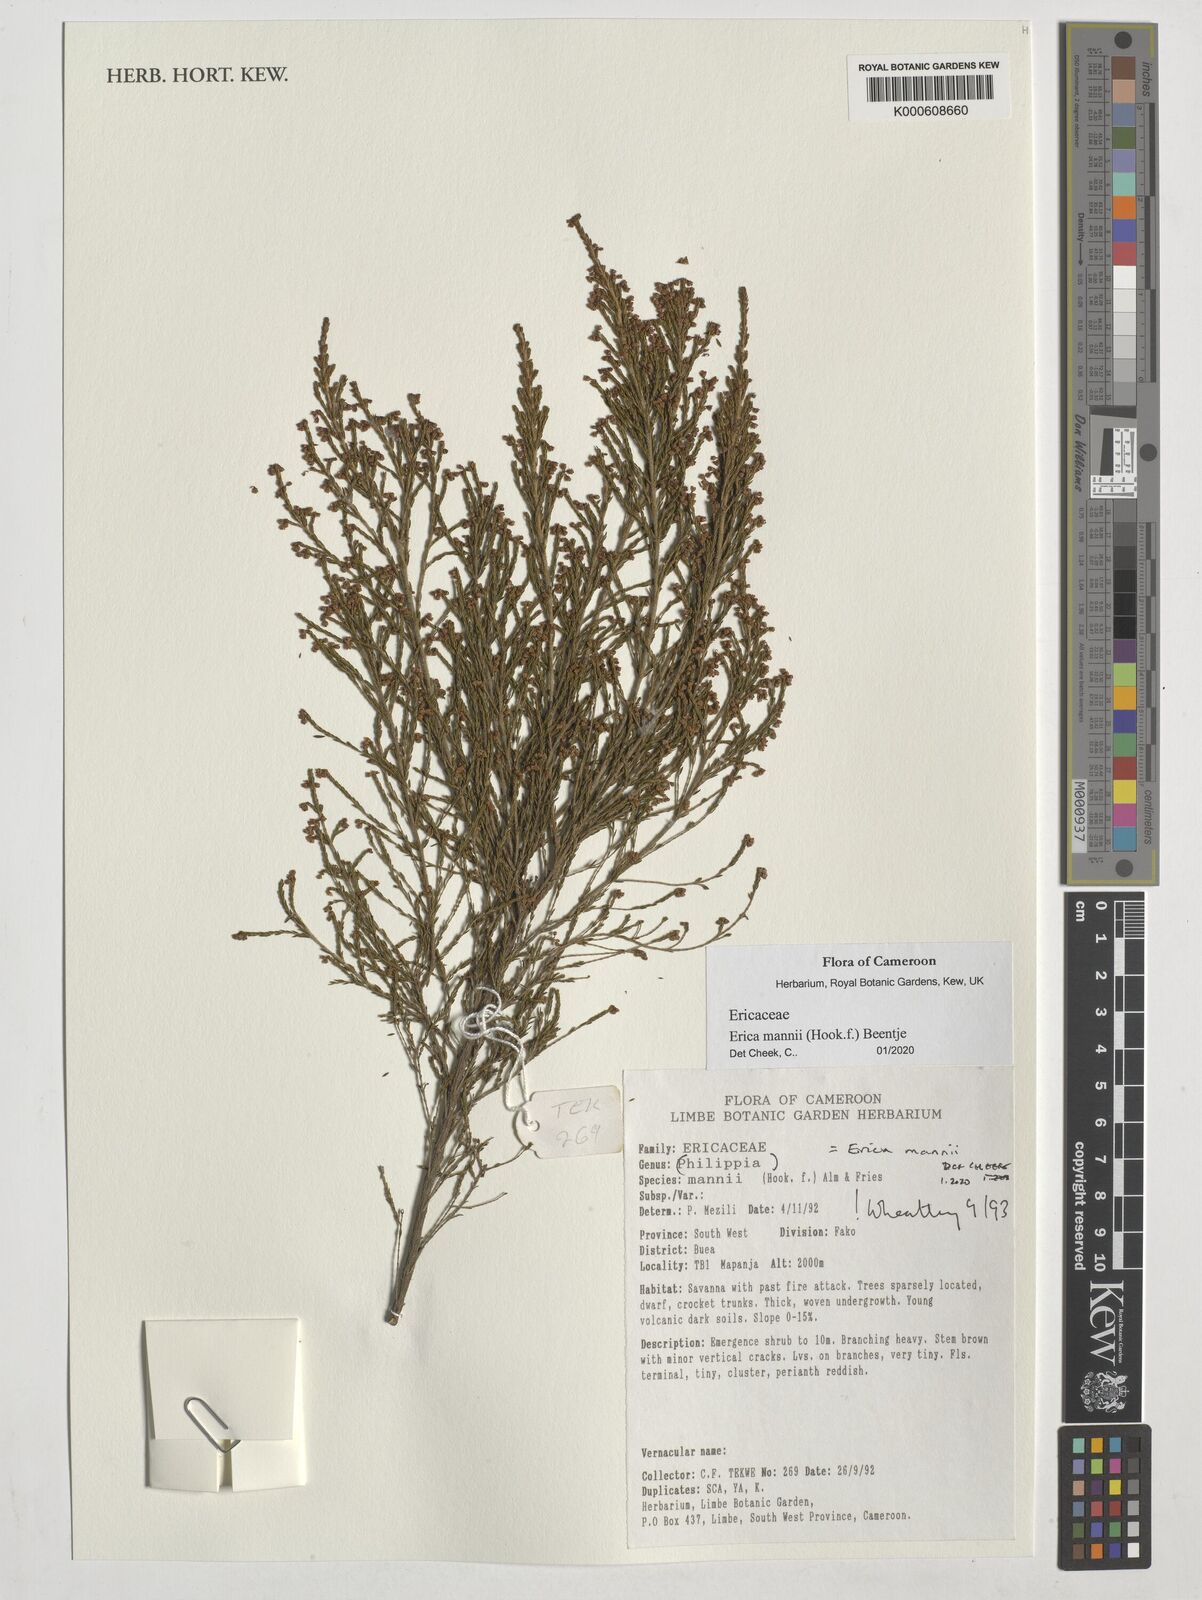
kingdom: Plantae
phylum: Tracheophyta
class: Magnoliopsida
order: Ericales
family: Ericaceae
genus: Erica
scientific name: Erica mannii
